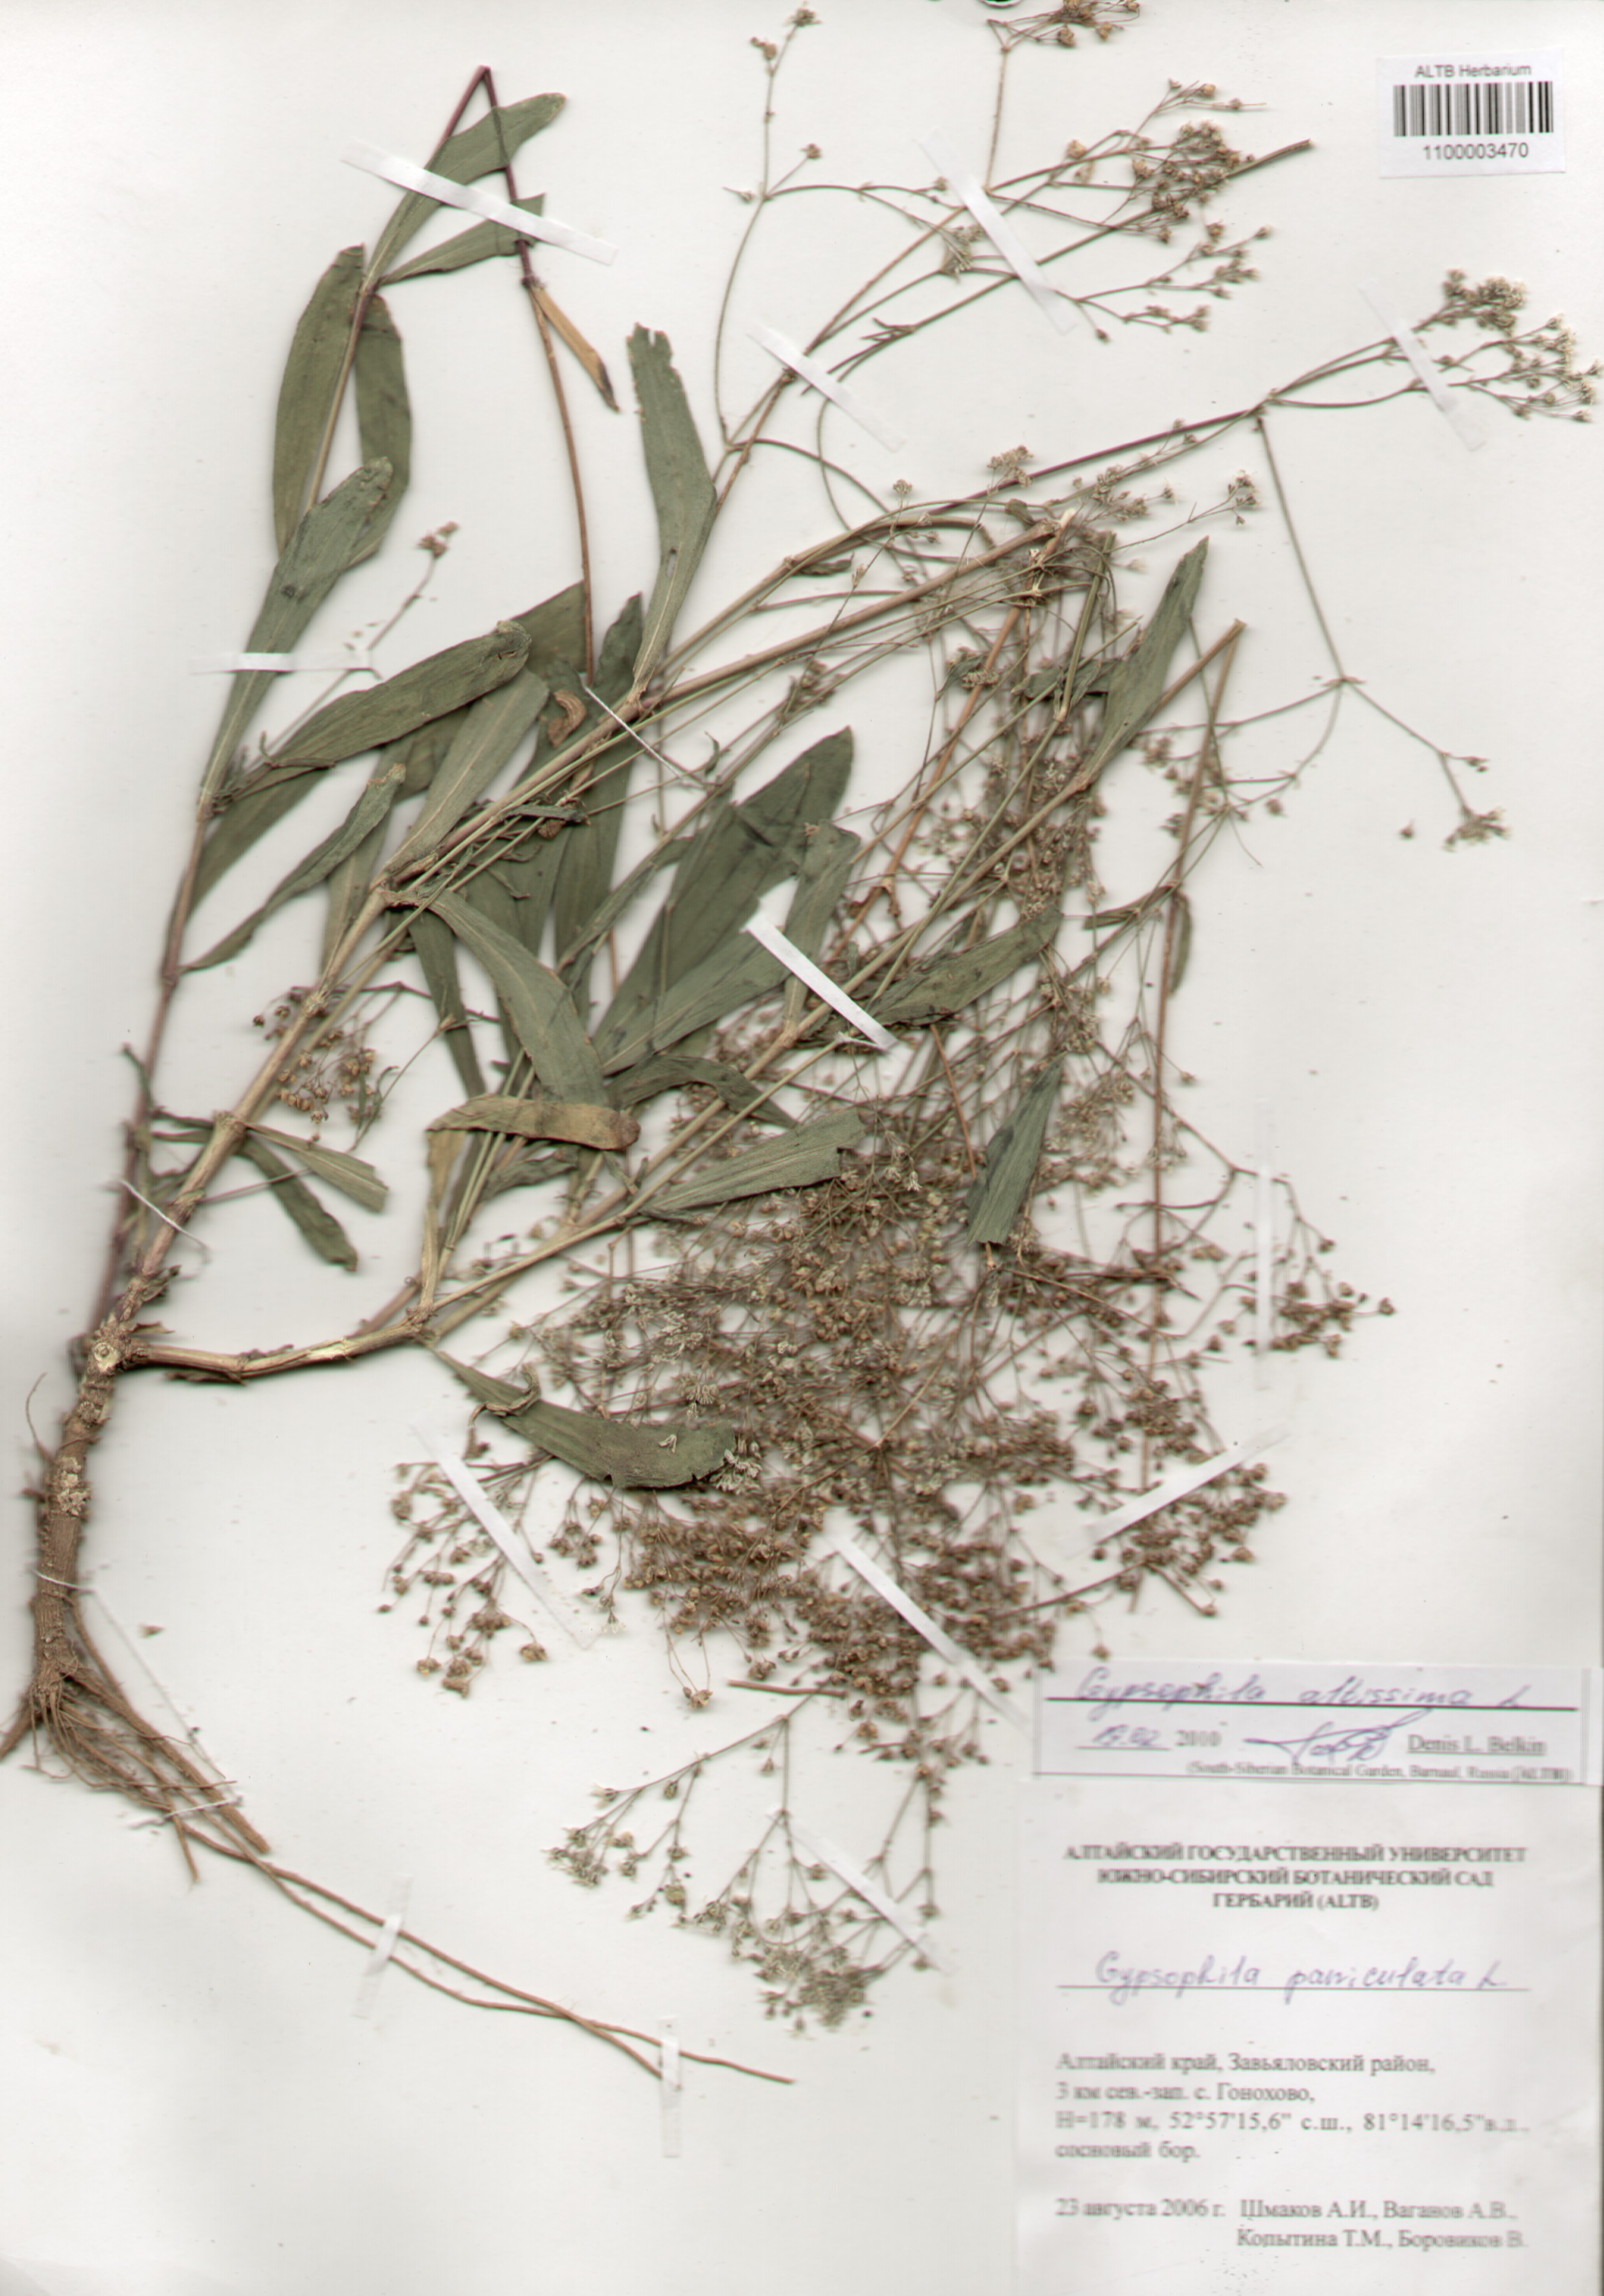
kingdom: Plantae
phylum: Tracheophyta
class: Magnoliopsida
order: Caryophyllales
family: Caryophyllaceae
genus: Gypsophila
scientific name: Gypsophila altissima
